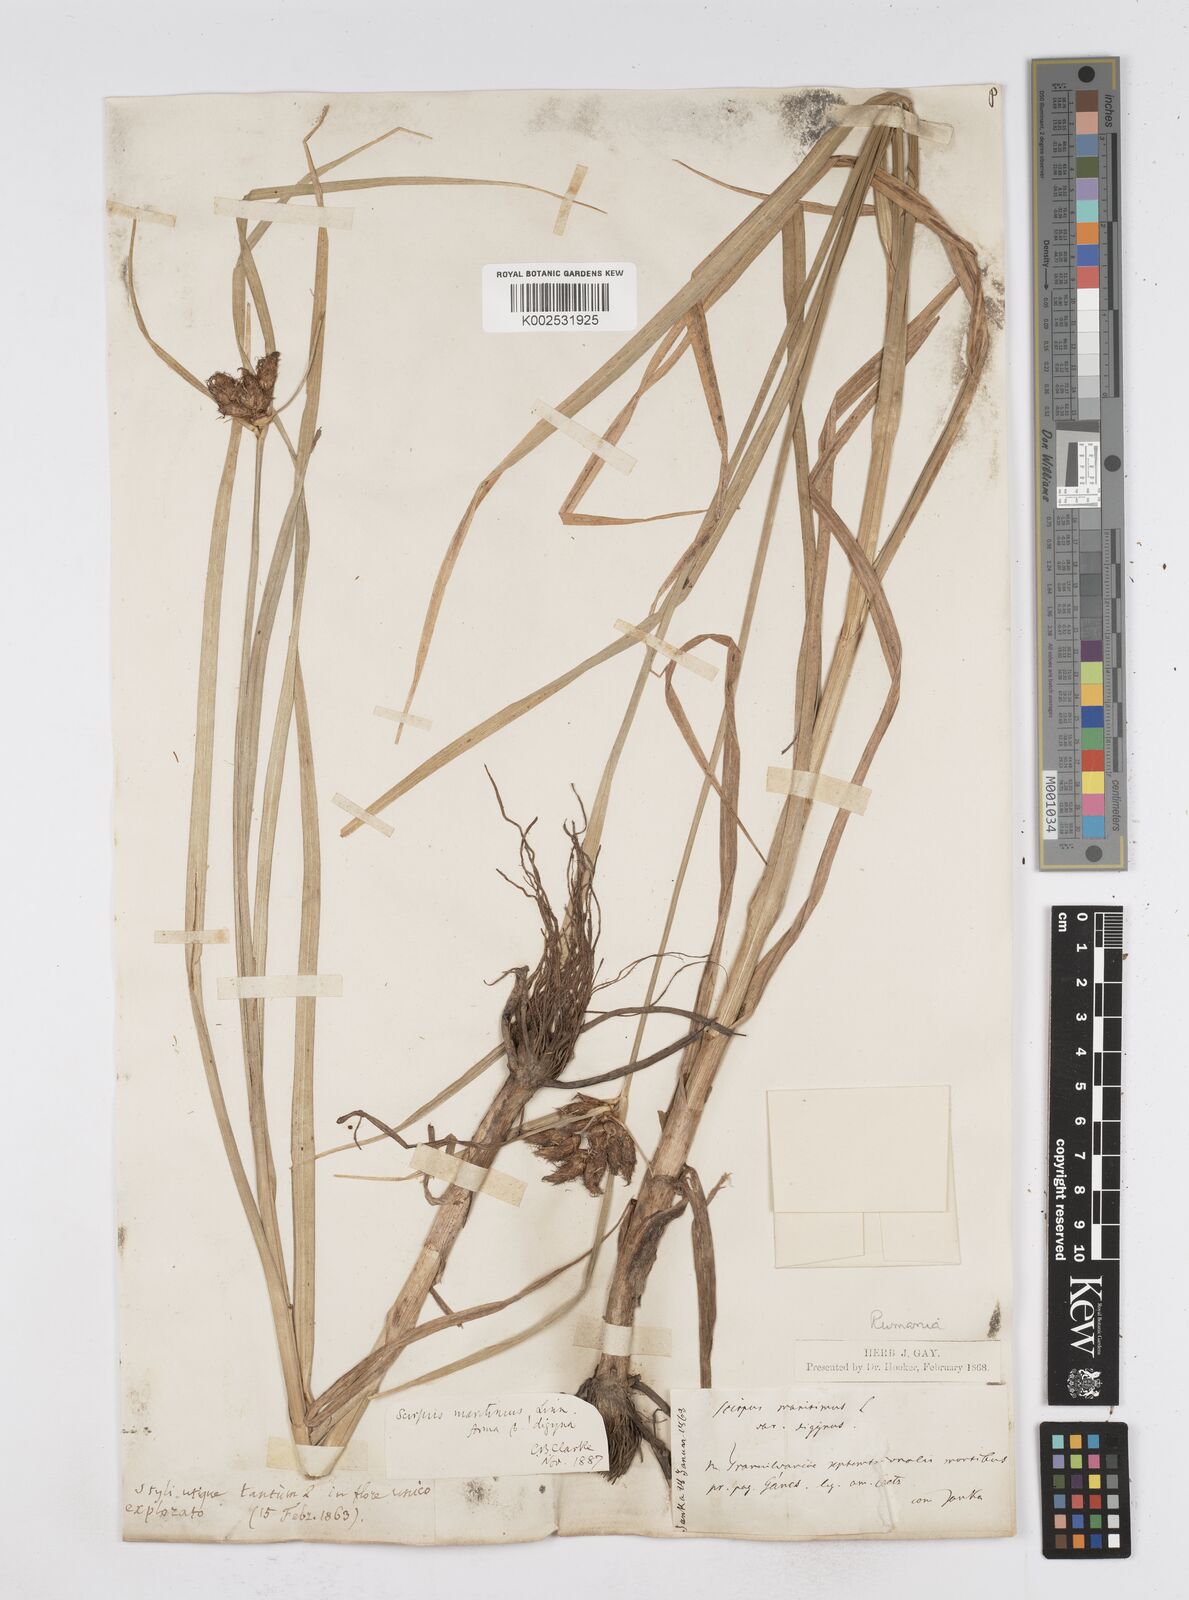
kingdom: Plantae
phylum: Tracheophyta
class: Liliopsida
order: Poales
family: Cyperaceae
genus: Bolboschoenus
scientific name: Bolboschoenus maritimus
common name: Sea club-rush
